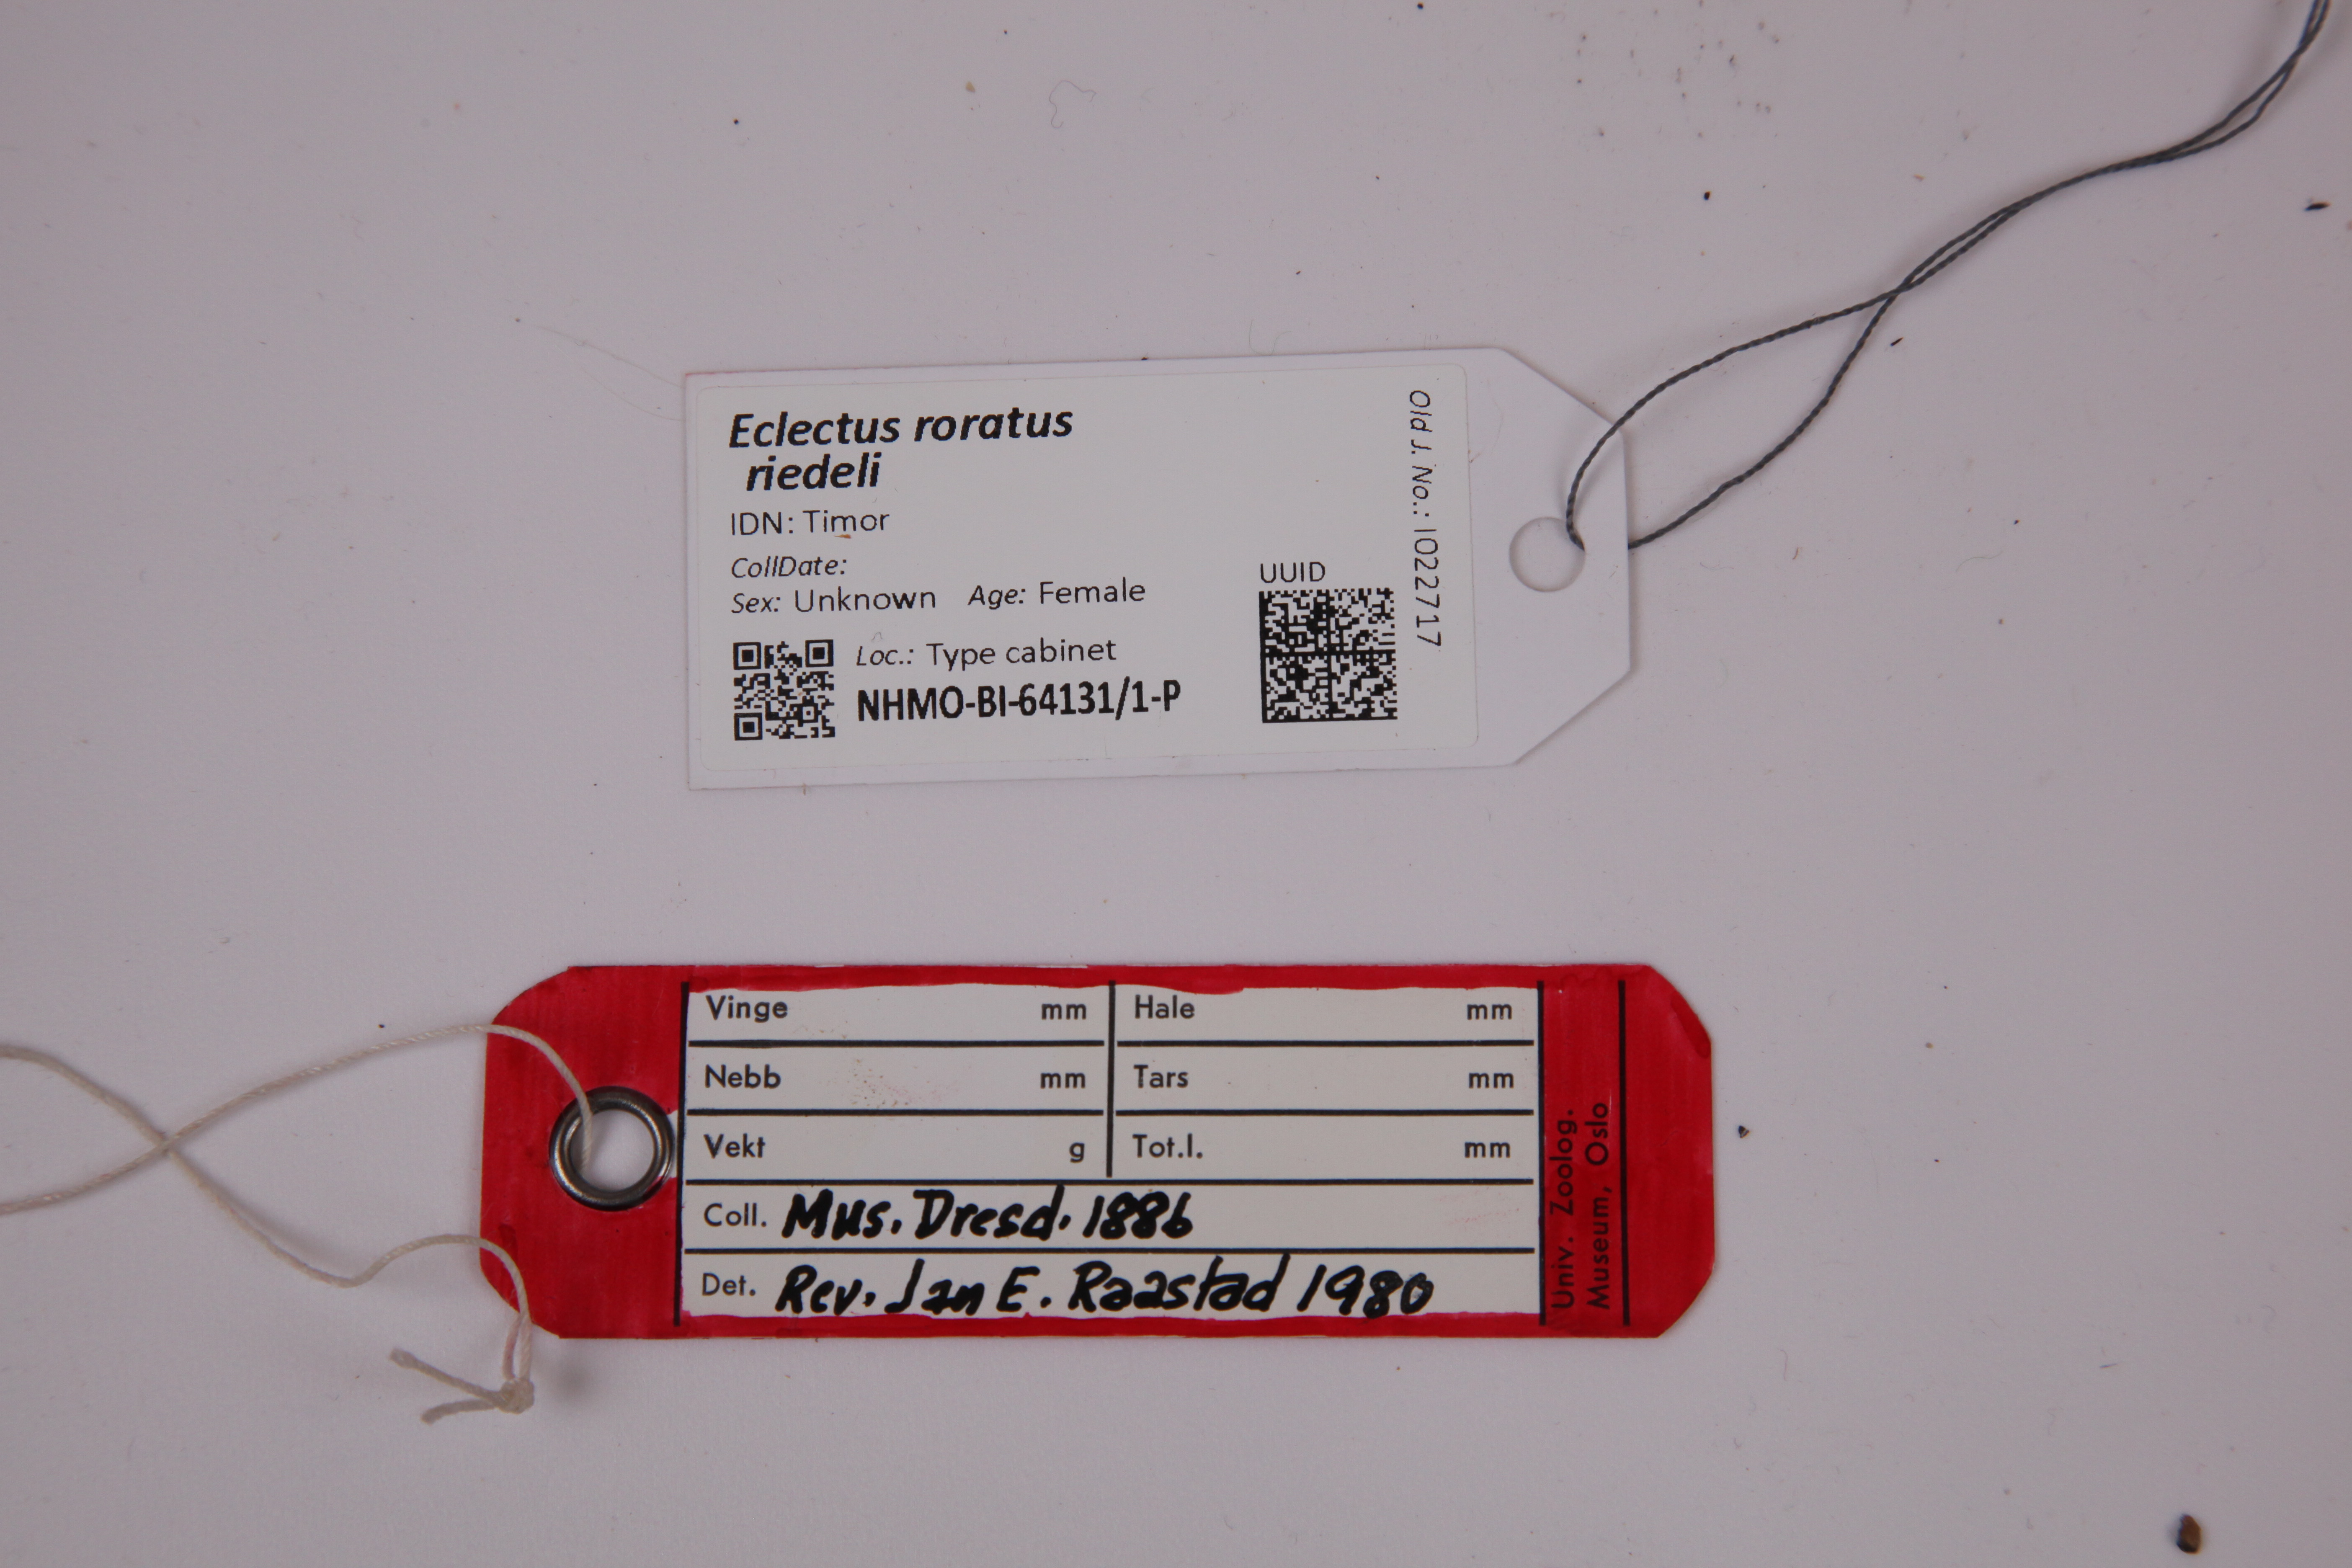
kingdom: Animalia
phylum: Chordata
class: Aves
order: Psittaciformes
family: Psittacidae
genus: Eclectus
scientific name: Eclectus roratus
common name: Eclectus parrot
